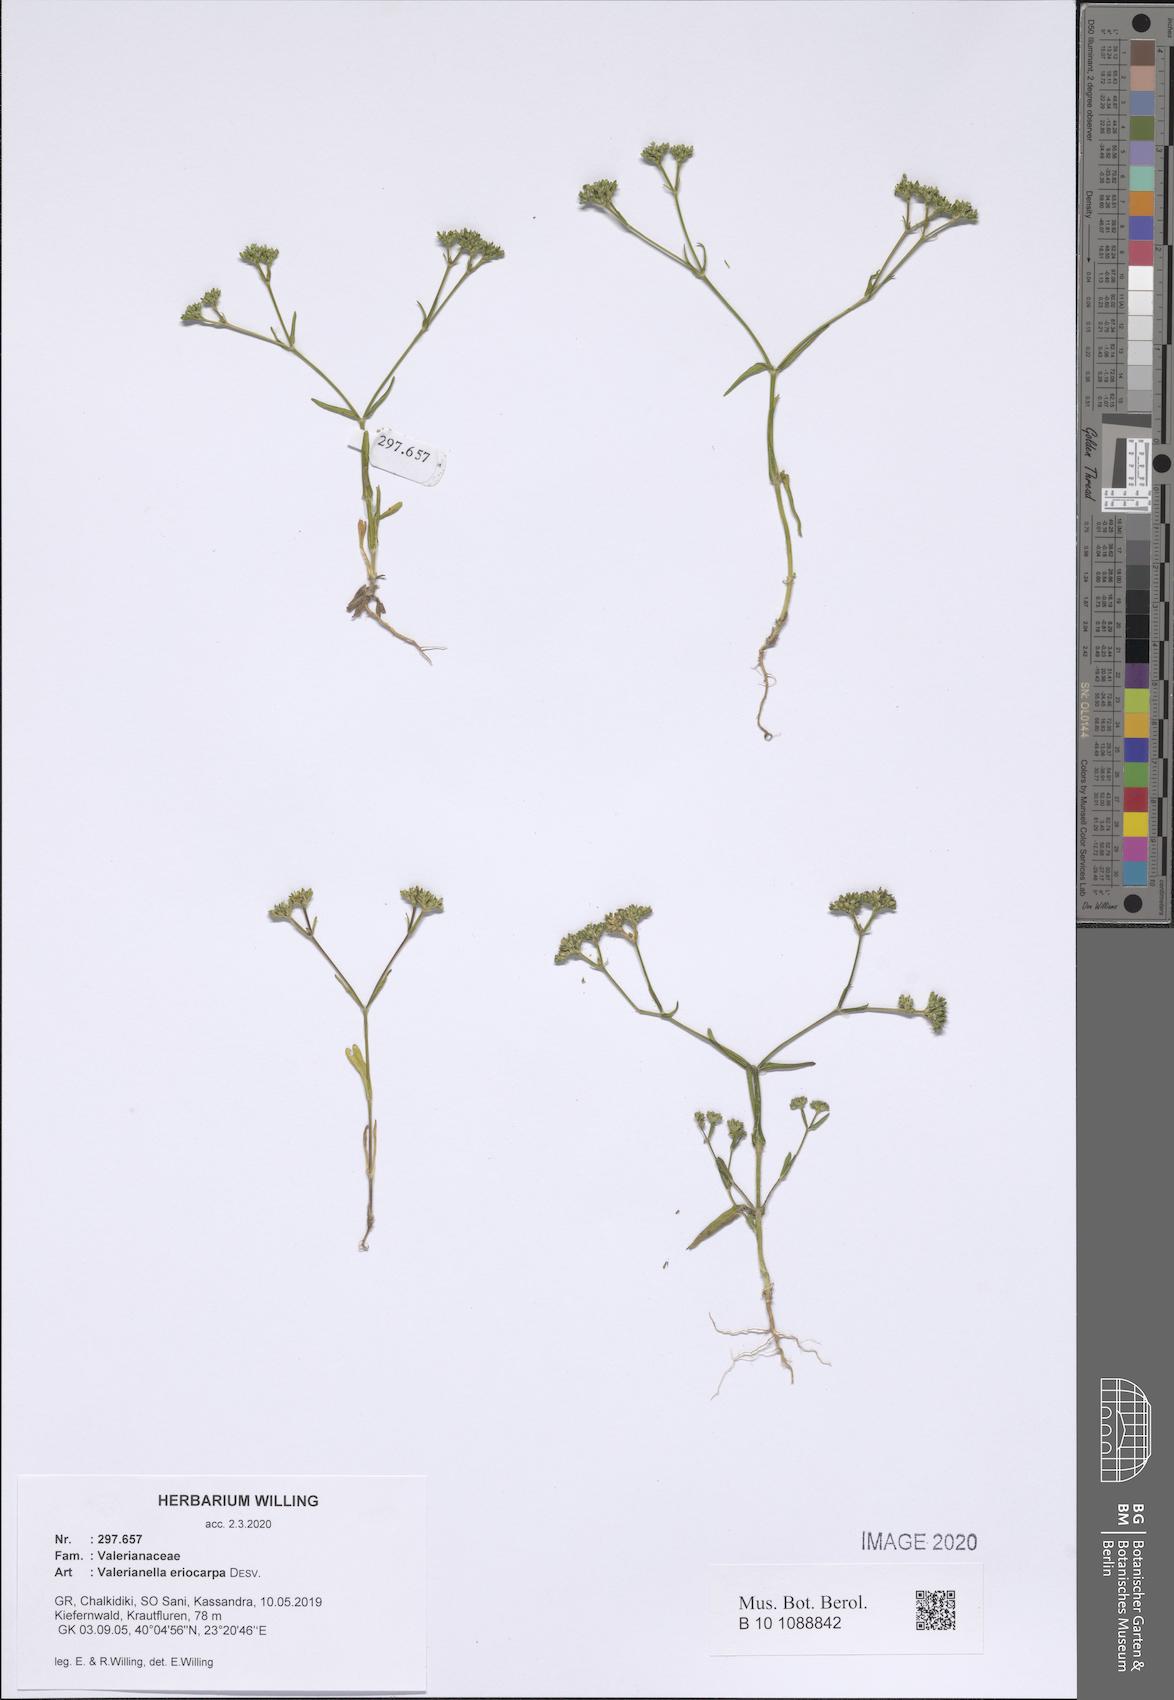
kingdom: Plantae
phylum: Tracheophyta
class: Magnoliopsida
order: Dipsacales
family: Caprifoliaceae
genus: Valerianella
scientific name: Valerianella eriocarpa
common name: Hairy-fruited cornsalad
